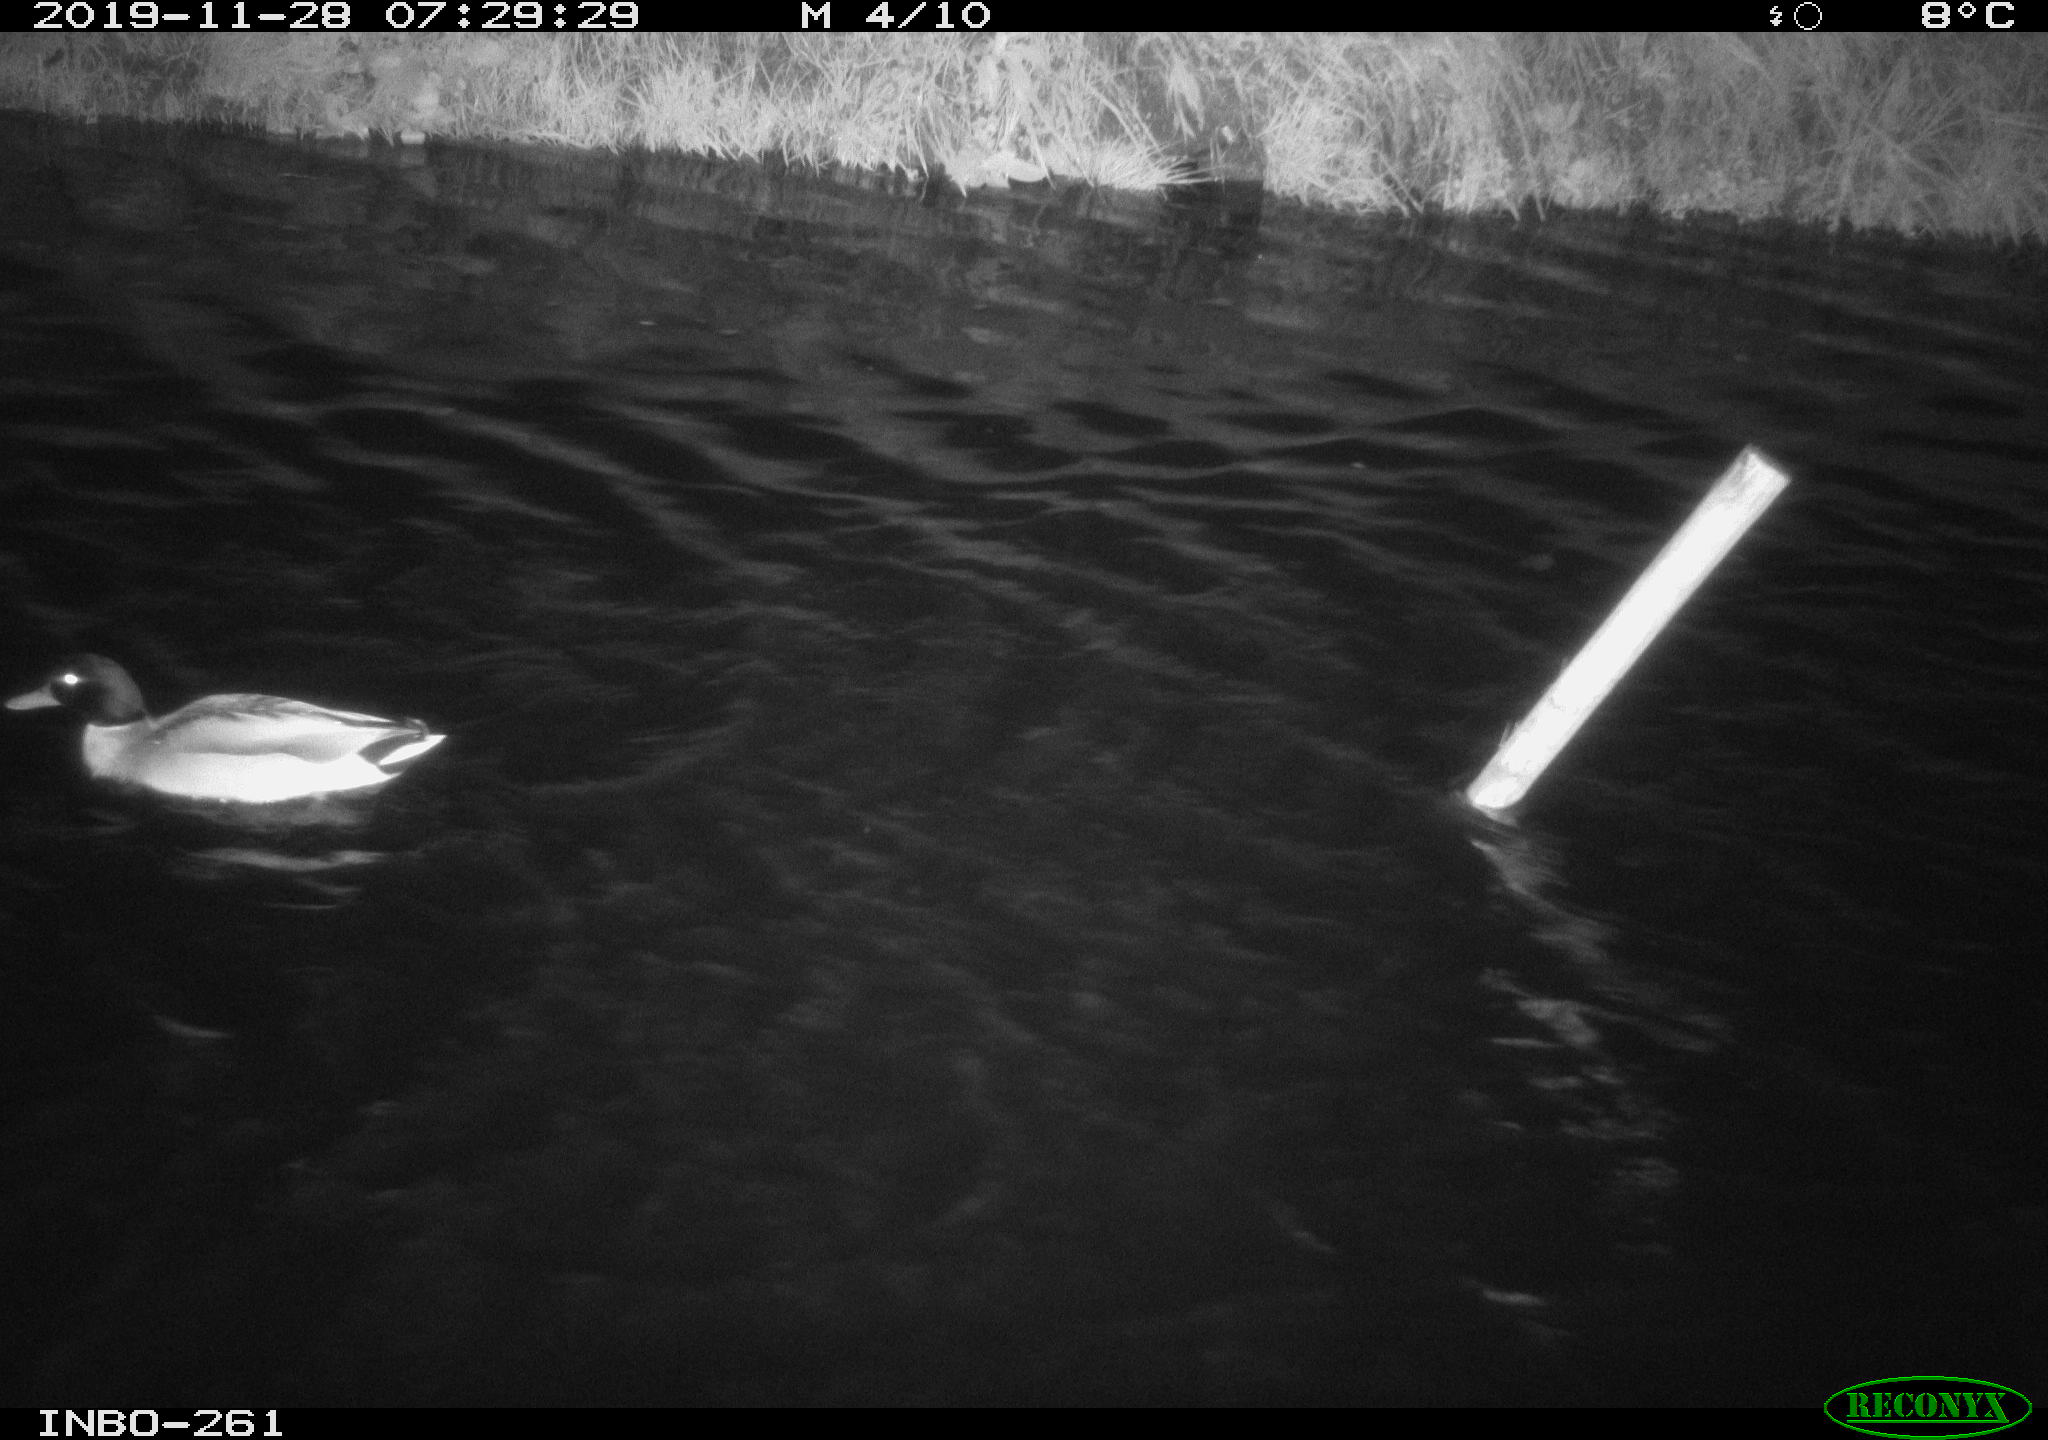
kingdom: Animalia
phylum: Chordata
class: Aves
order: Anseriformes
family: Anatidae
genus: Anas
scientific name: Anas platyrhynchos
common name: Mallard
